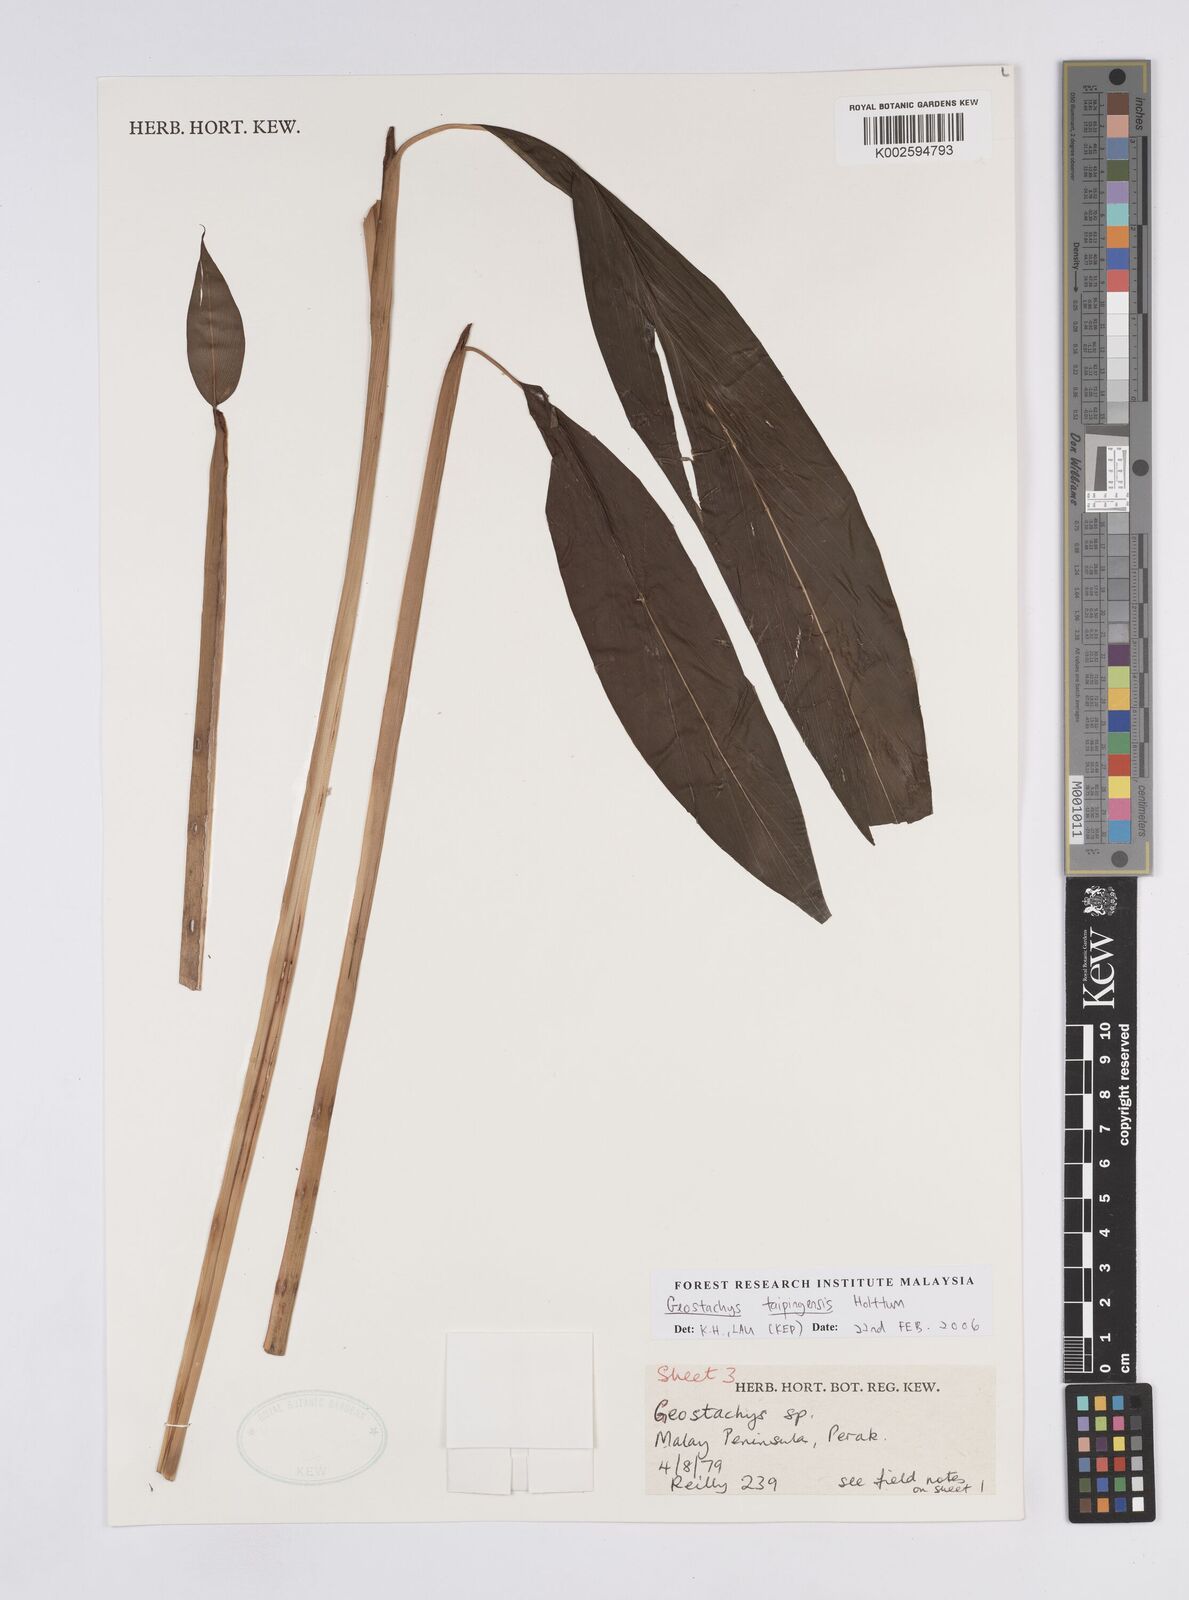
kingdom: Plantae
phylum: Tracheophyta
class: Liliopsida
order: Zingiberales
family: Zingiberaceae
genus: Geostachys
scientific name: Geostachys taipingensis
